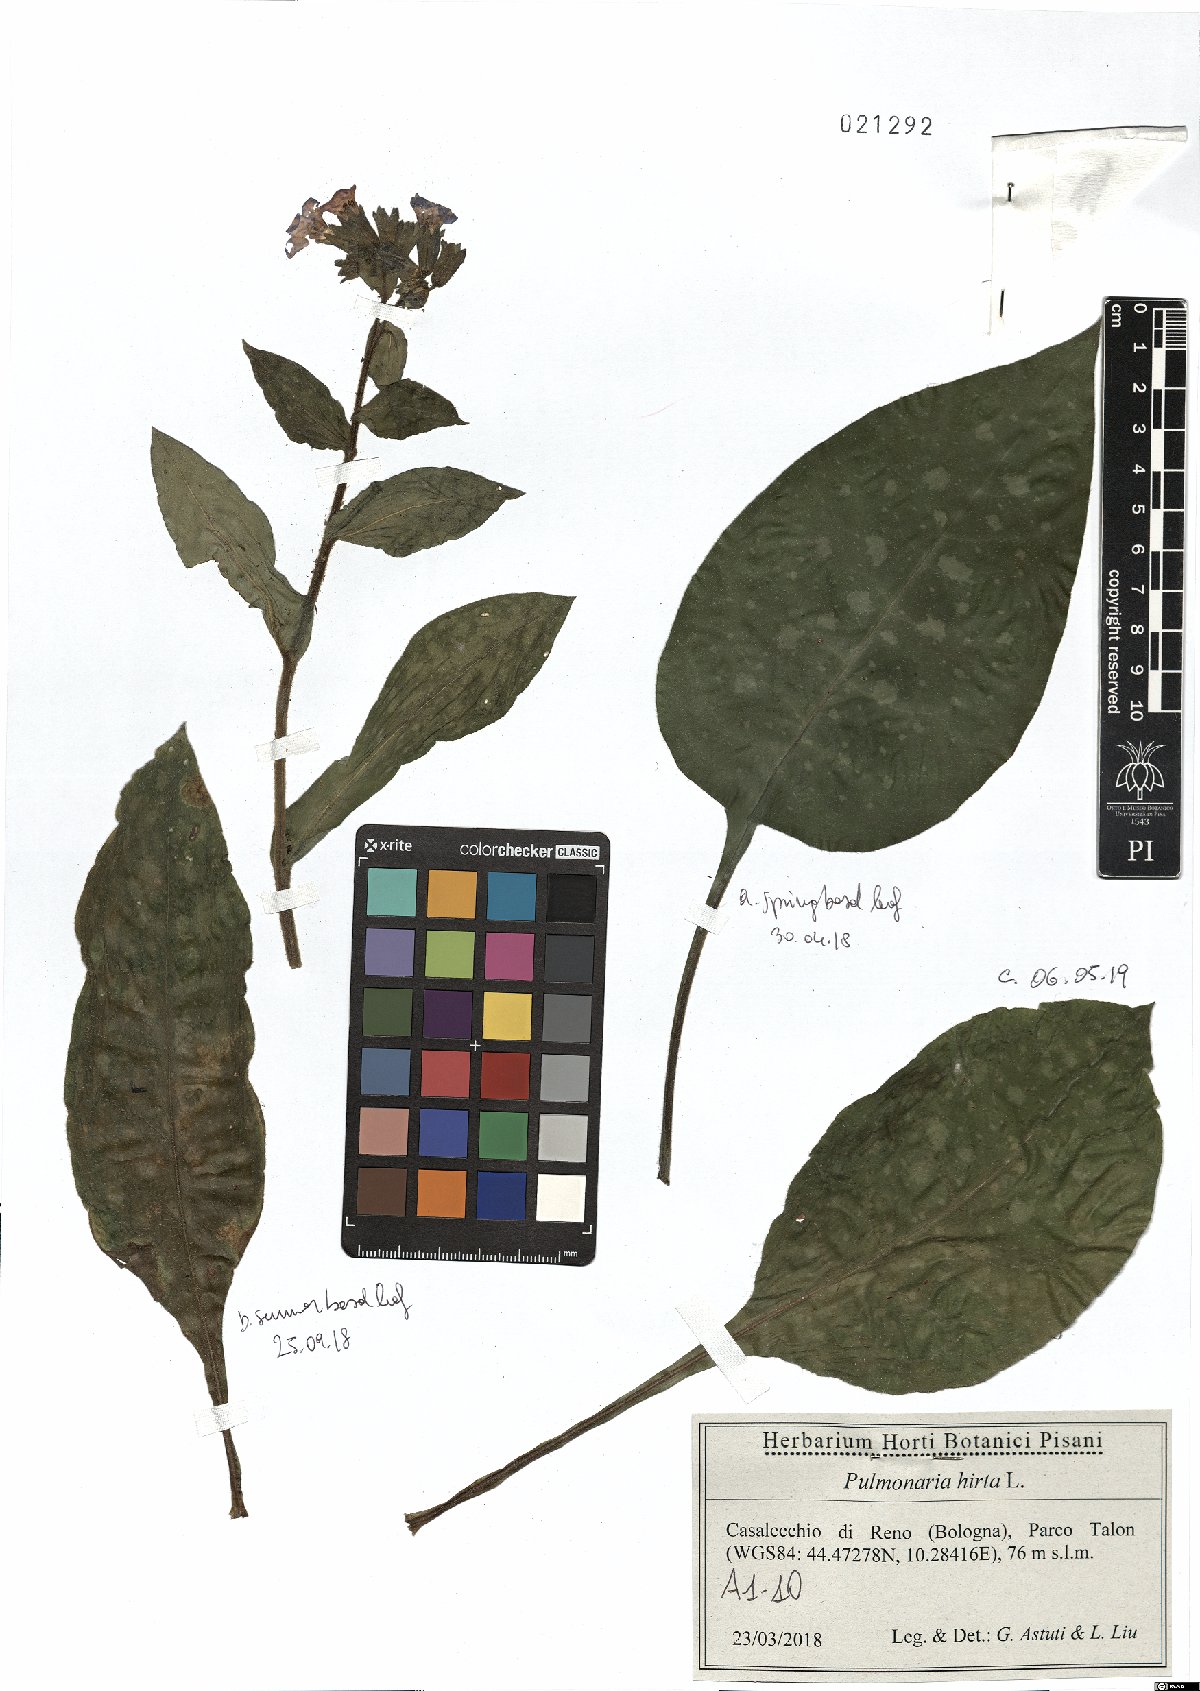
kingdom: Plantae
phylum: Tracheophyta
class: Magnoliopsida
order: Boraginales
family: Boraginaceae
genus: Pulmonaria
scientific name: Pulmonaria hirta
